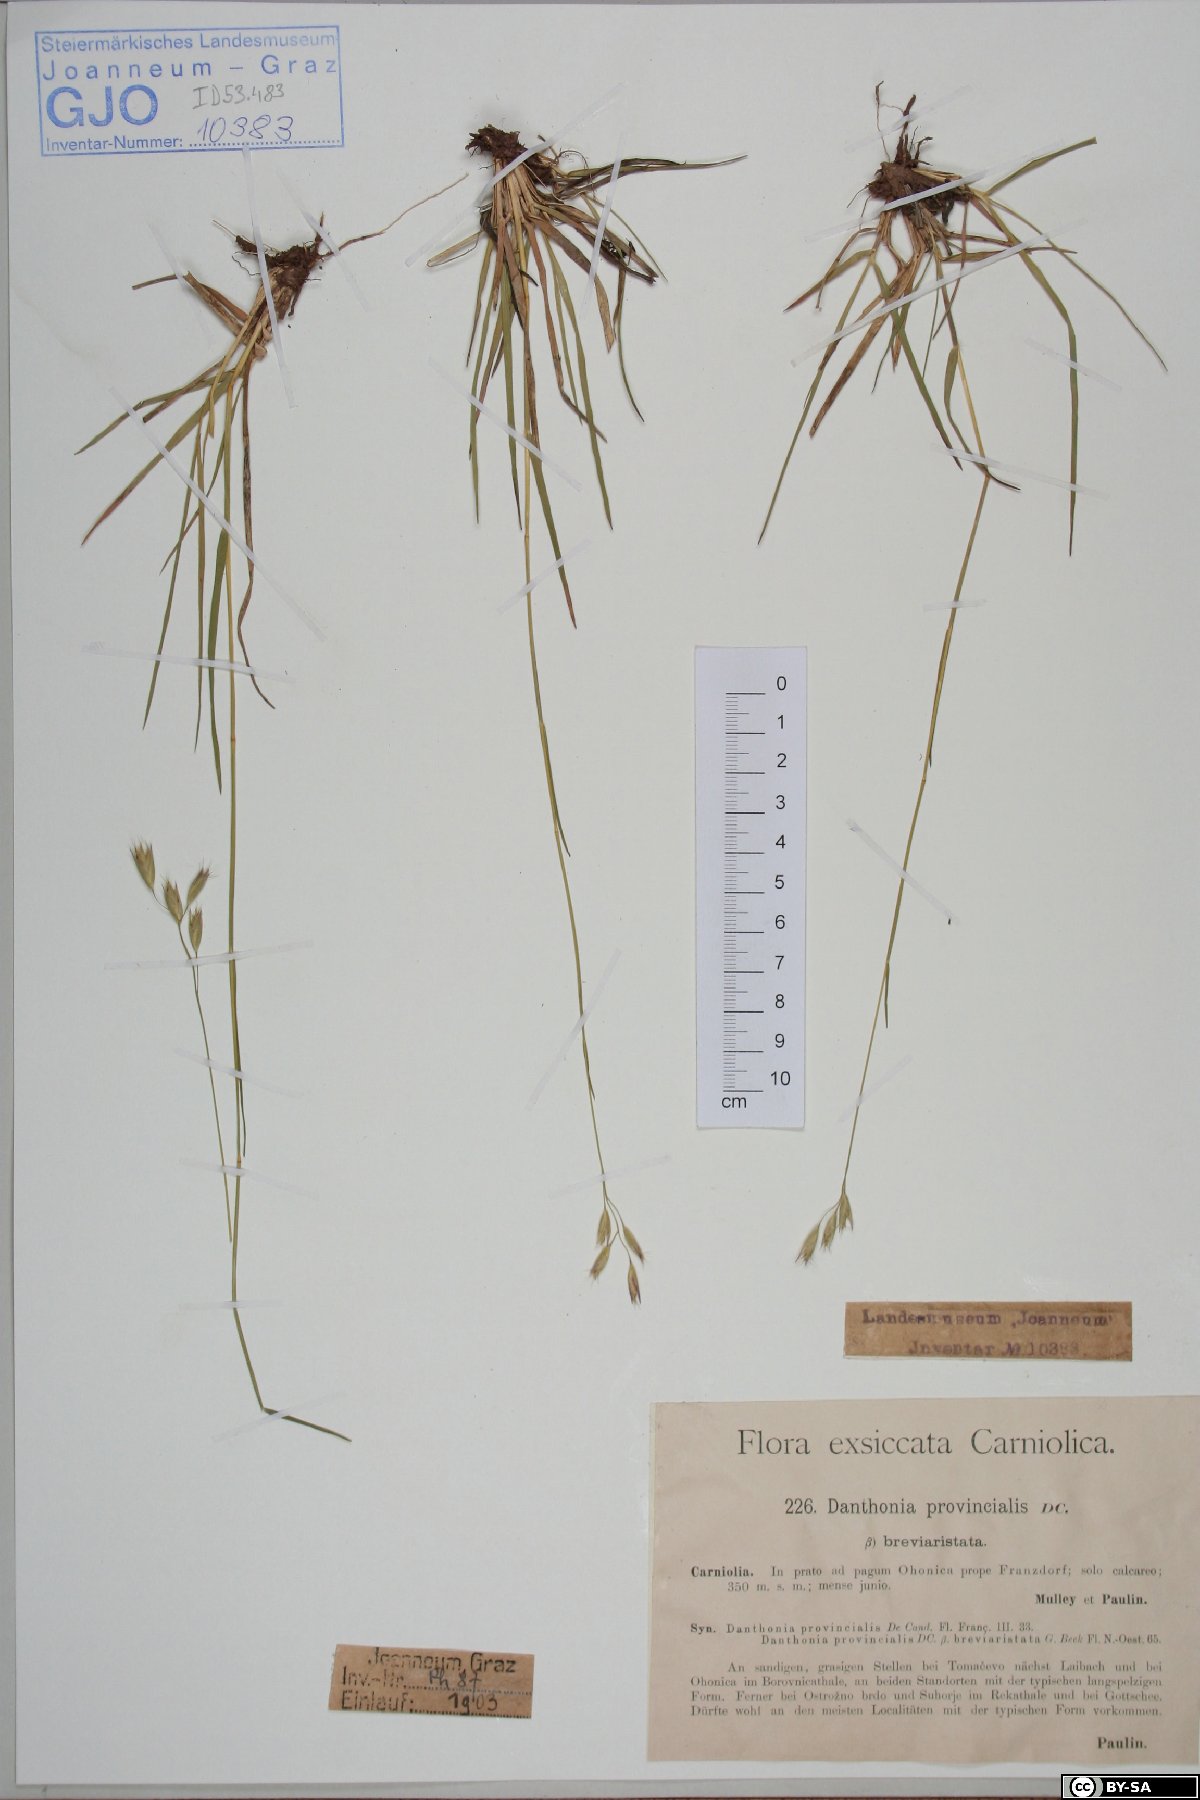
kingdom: Plantae
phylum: Tracheophyta
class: Liliopsida
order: Poales
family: Poaceae
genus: Danthonia
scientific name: Danthonia breviaristata
